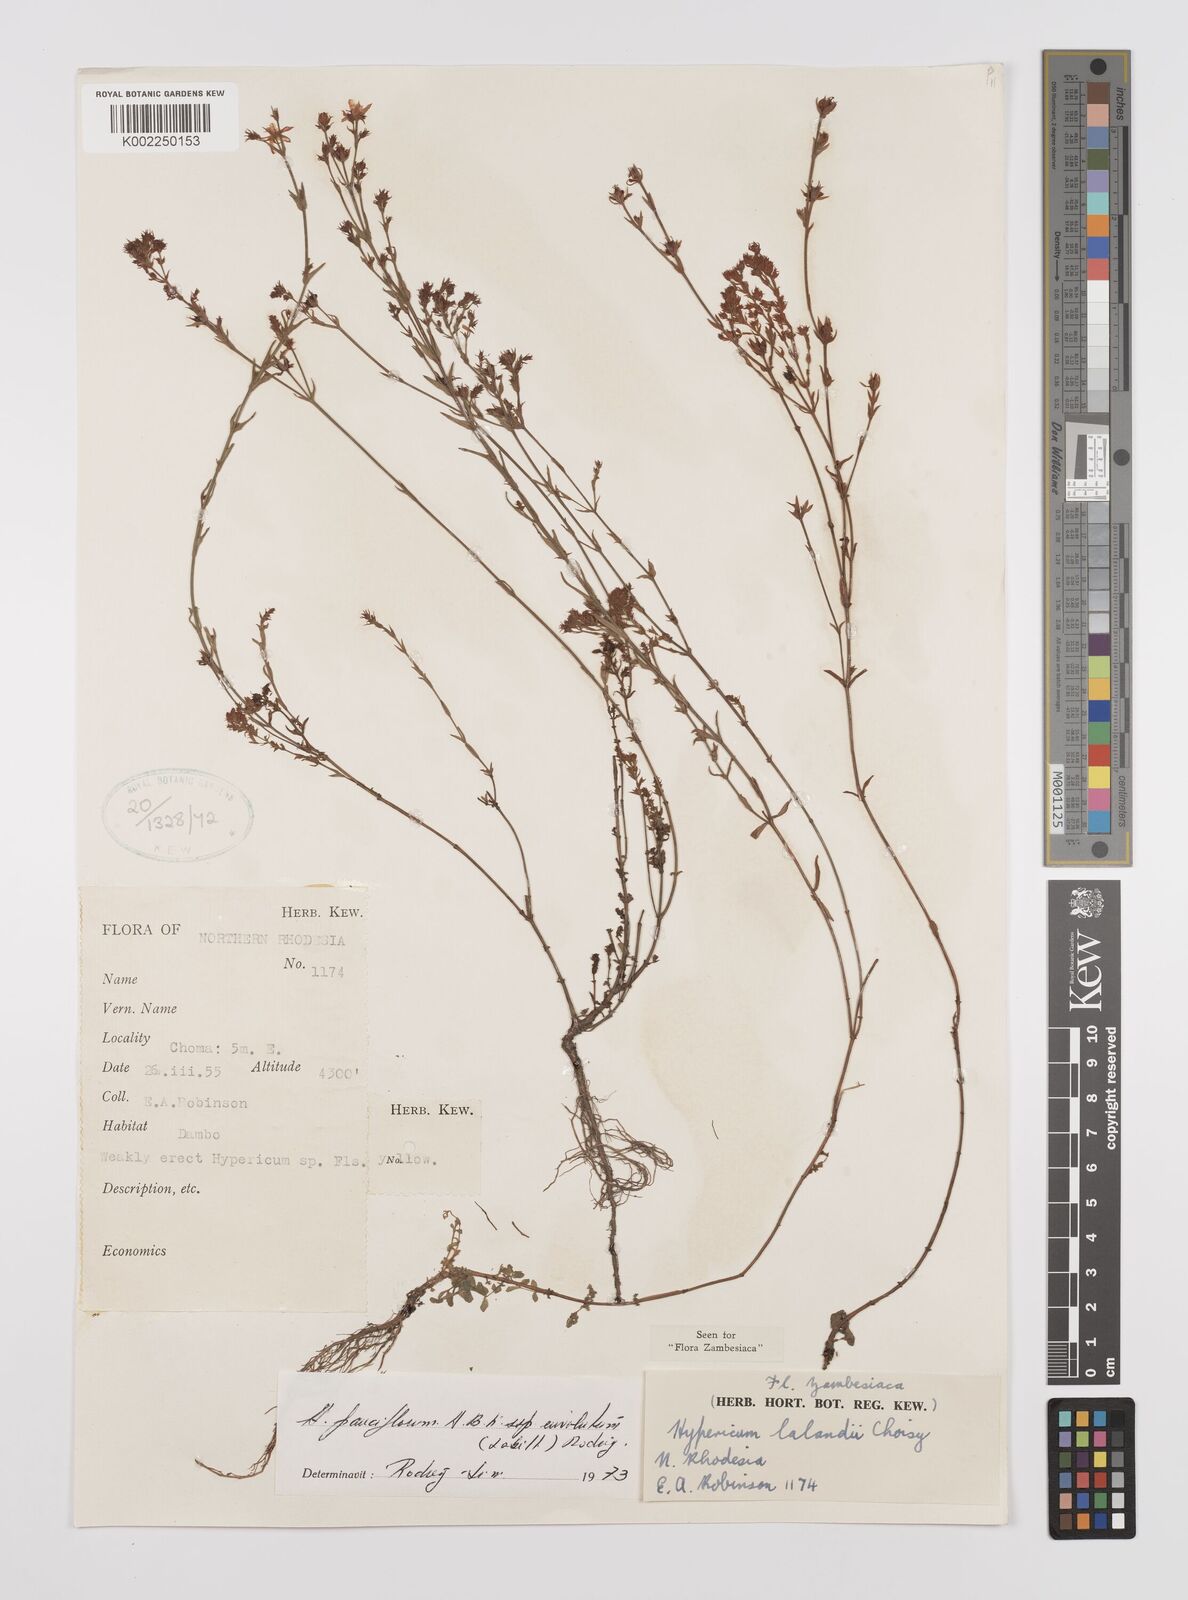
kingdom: Plantae
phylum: Tracheophyta
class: Magnoliopsida
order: Malpighiales
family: Hypericaceae
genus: Hypericum
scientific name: Hypericum lalandii
